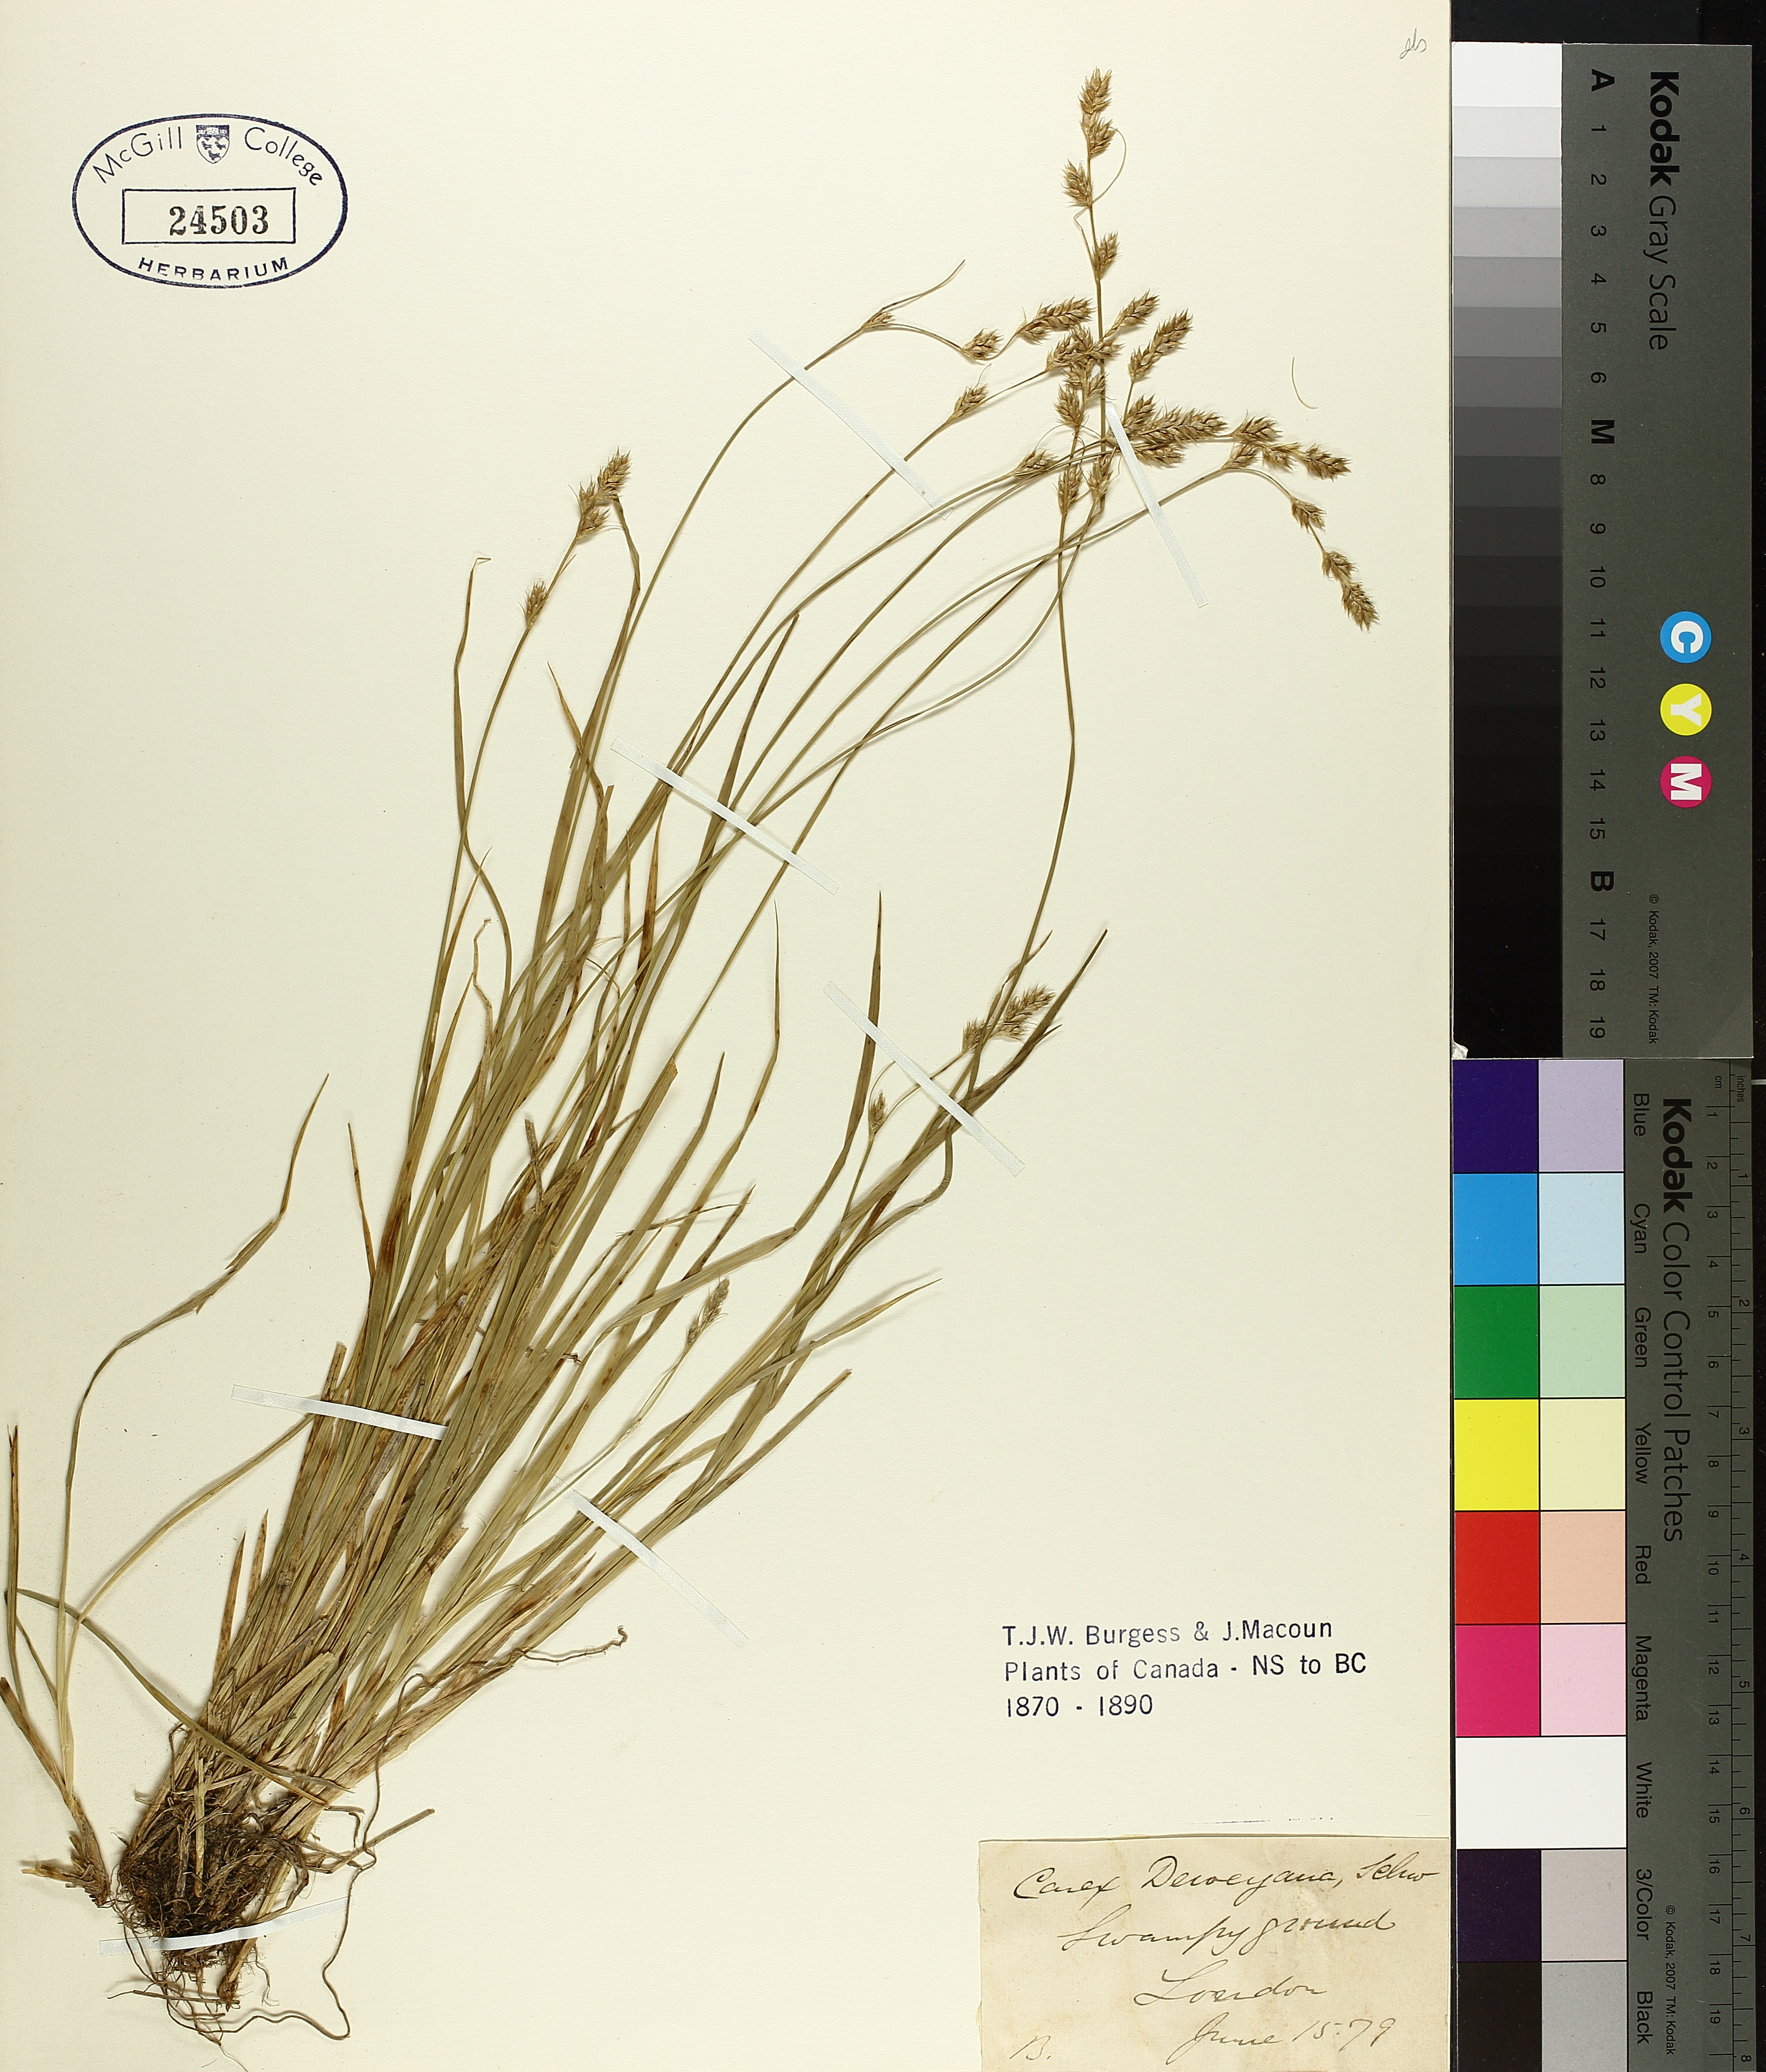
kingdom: Plantae
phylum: Tracheophyta
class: Liliopsida
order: Poales
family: Cyperaceae
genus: Carex
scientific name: Carex deweyana
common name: Dewey's sedge
